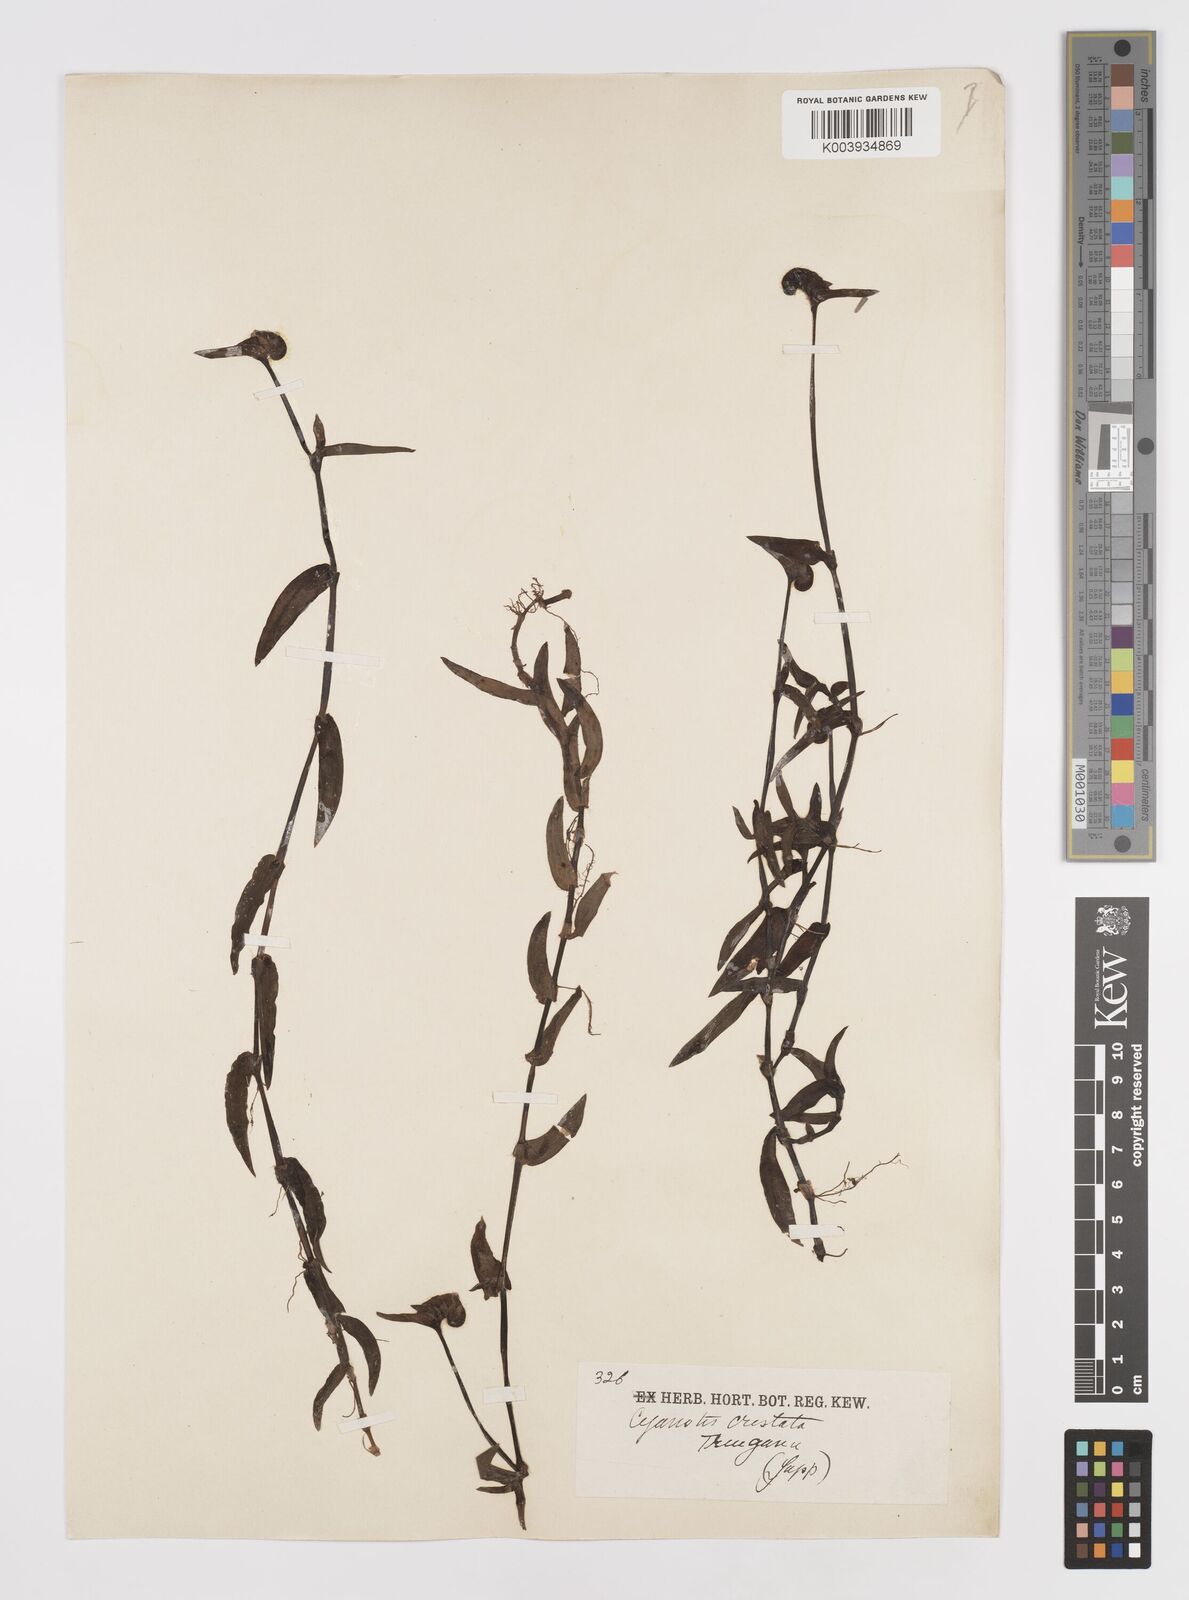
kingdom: Plantae
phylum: Tracheophyta
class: Liliopsida
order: Commelinales
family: Commelinaceae
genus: Cyanotis
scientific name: Cyanotis cristata
